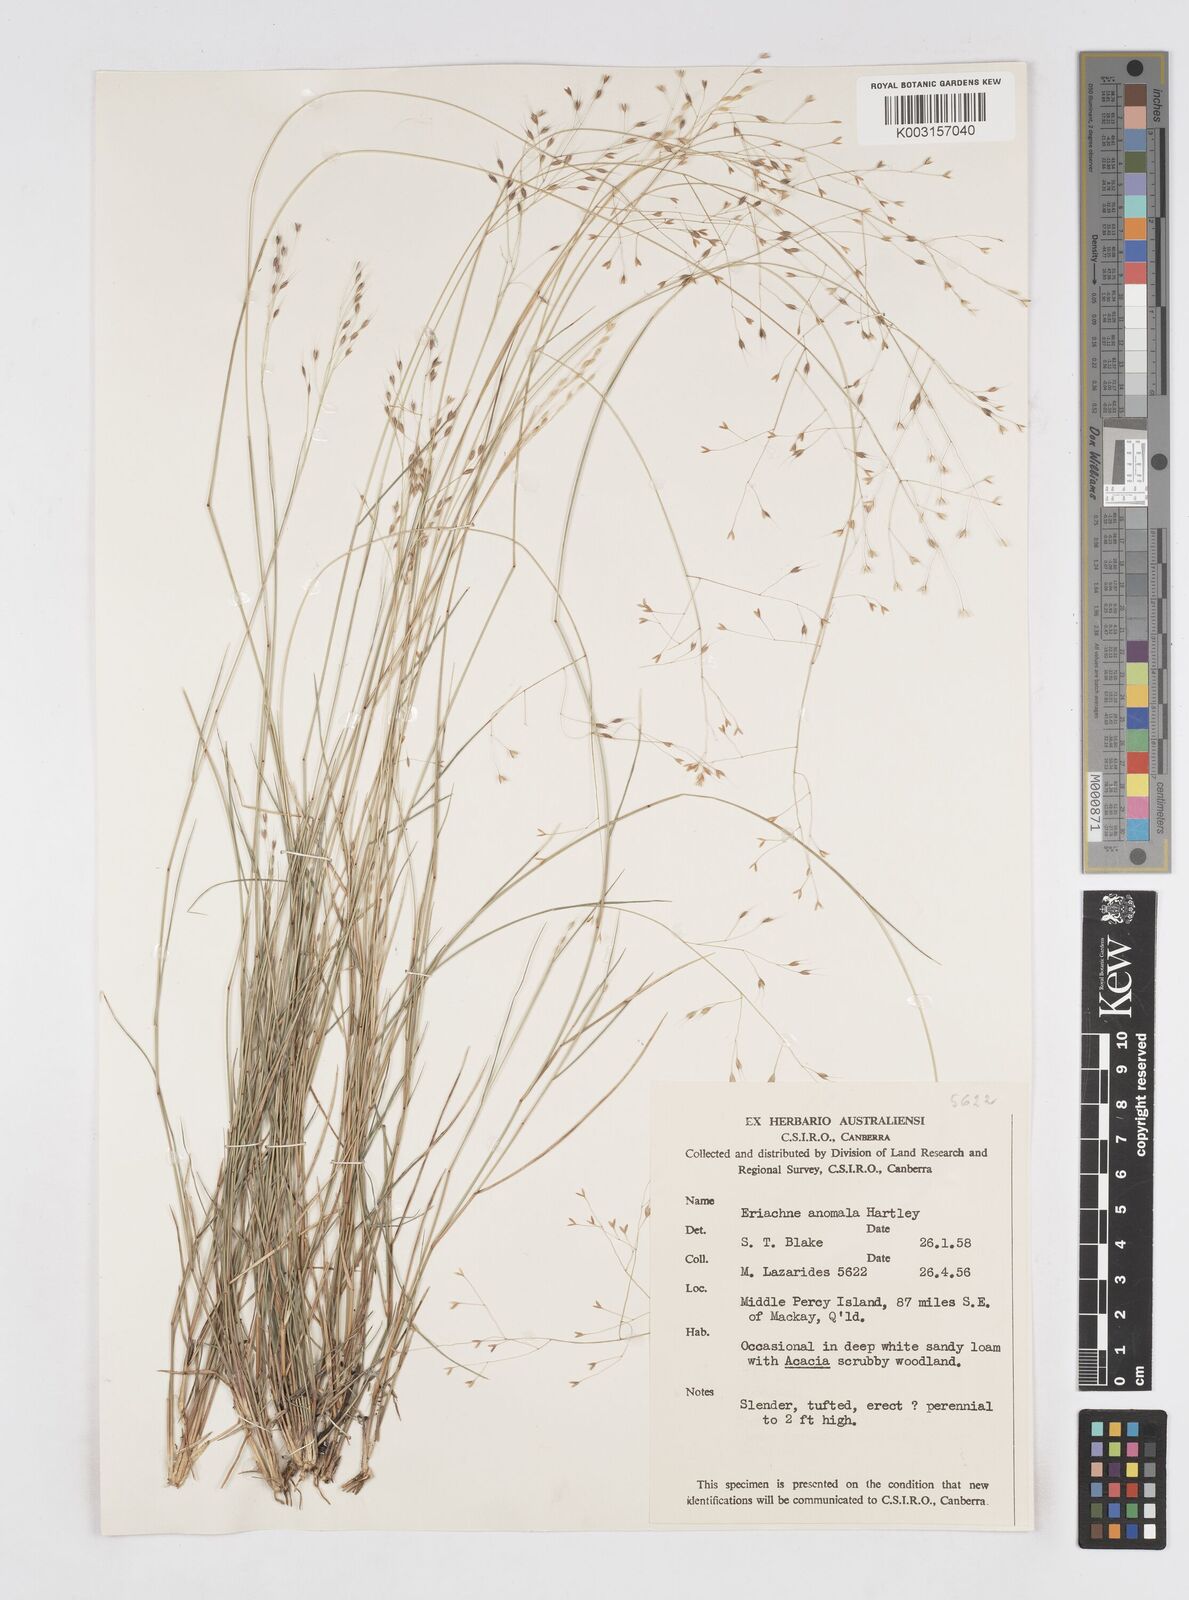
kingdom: Plantae
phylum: Tracheophyta
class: Liliopsida
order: Poales
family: Poaceae
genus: Eriachne
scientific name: Eriachne pallescens
